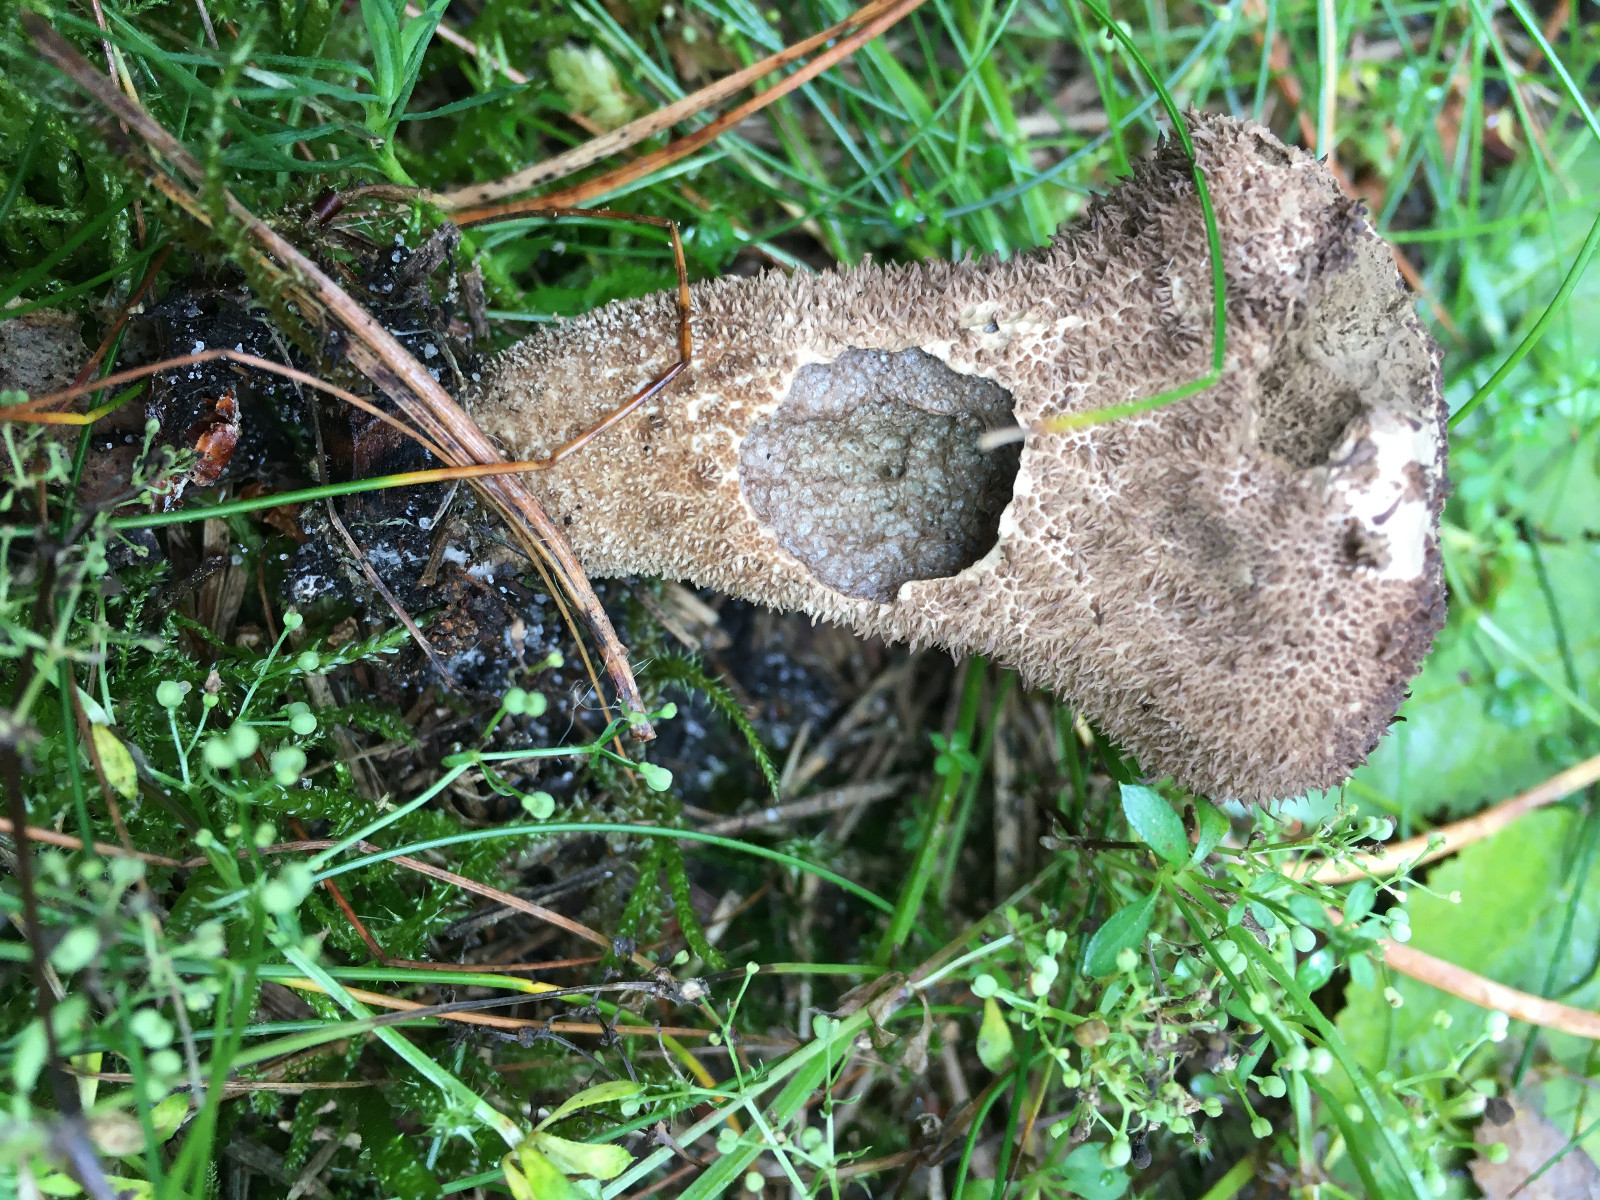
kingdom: Fungi
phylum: Basidiomycota
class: Agaricomycetes
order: Agaricales
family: Lycoperdaceae
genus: Lycoperdon
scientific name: Lycoperdon nigrescens
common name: sortagtig støvbold
